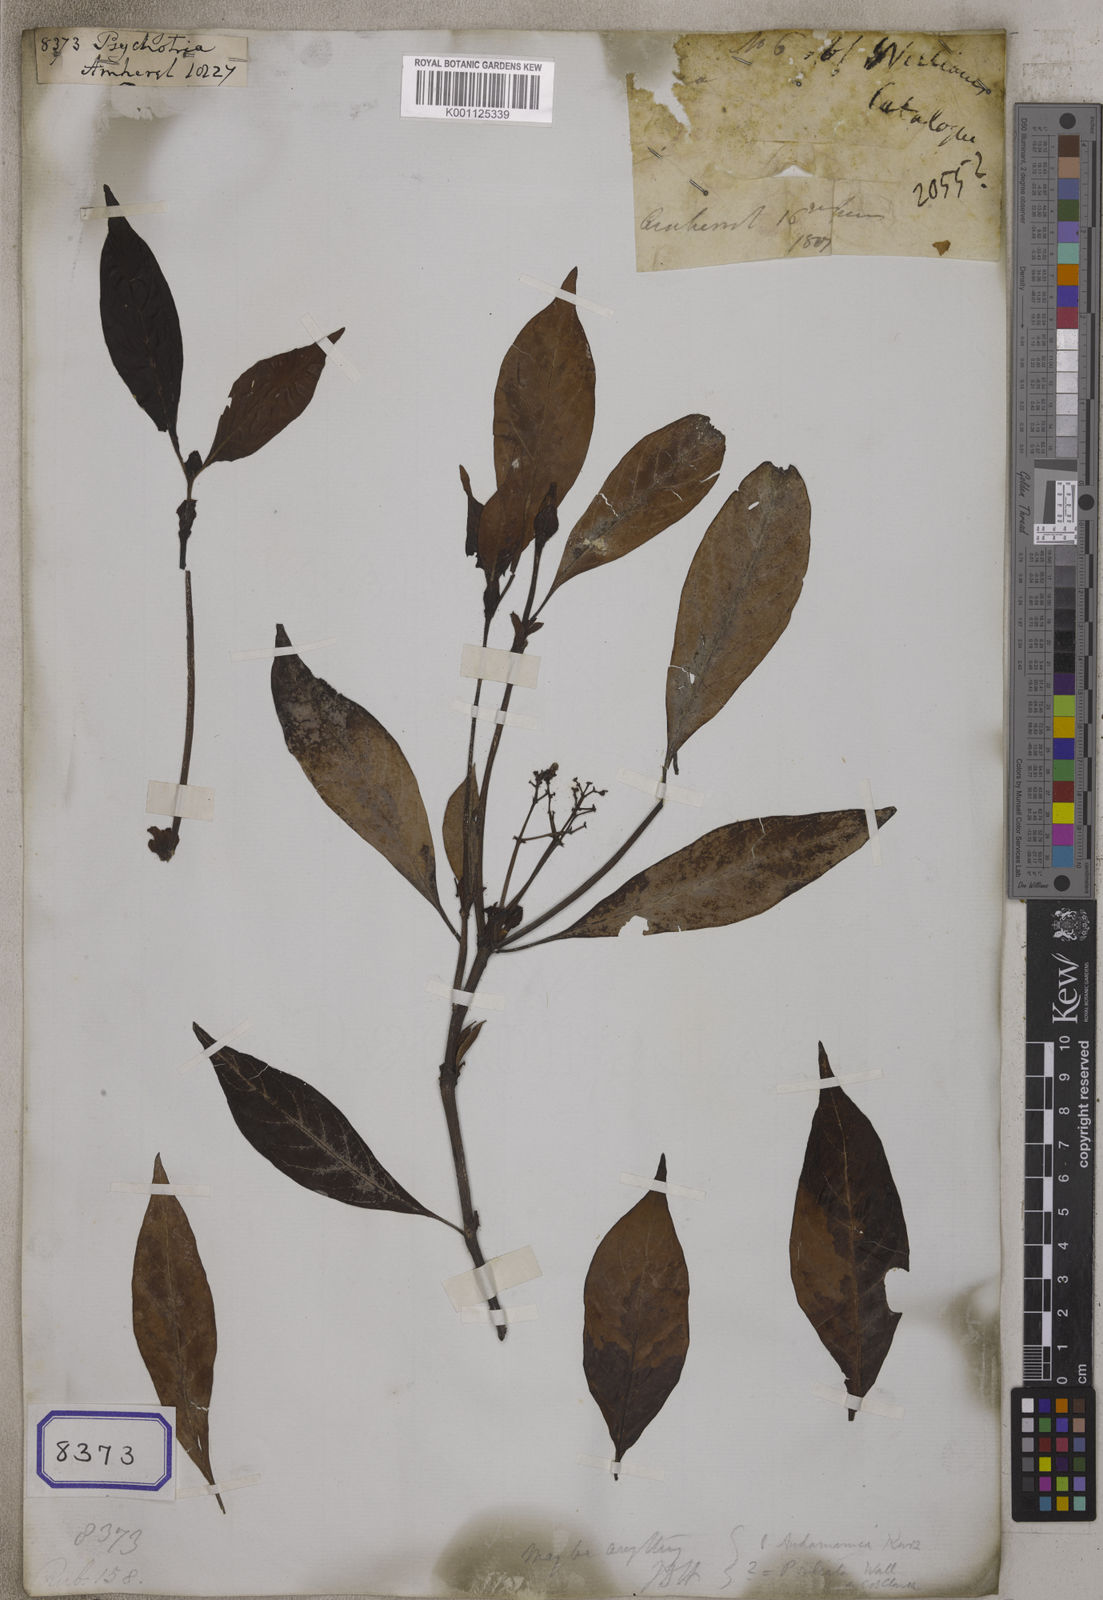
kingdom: Plantae
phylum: Tracheophyta
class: Magnoliopsida
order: Gentianales
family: Rubiaceae
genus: Psychotria
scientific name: Psychotria
